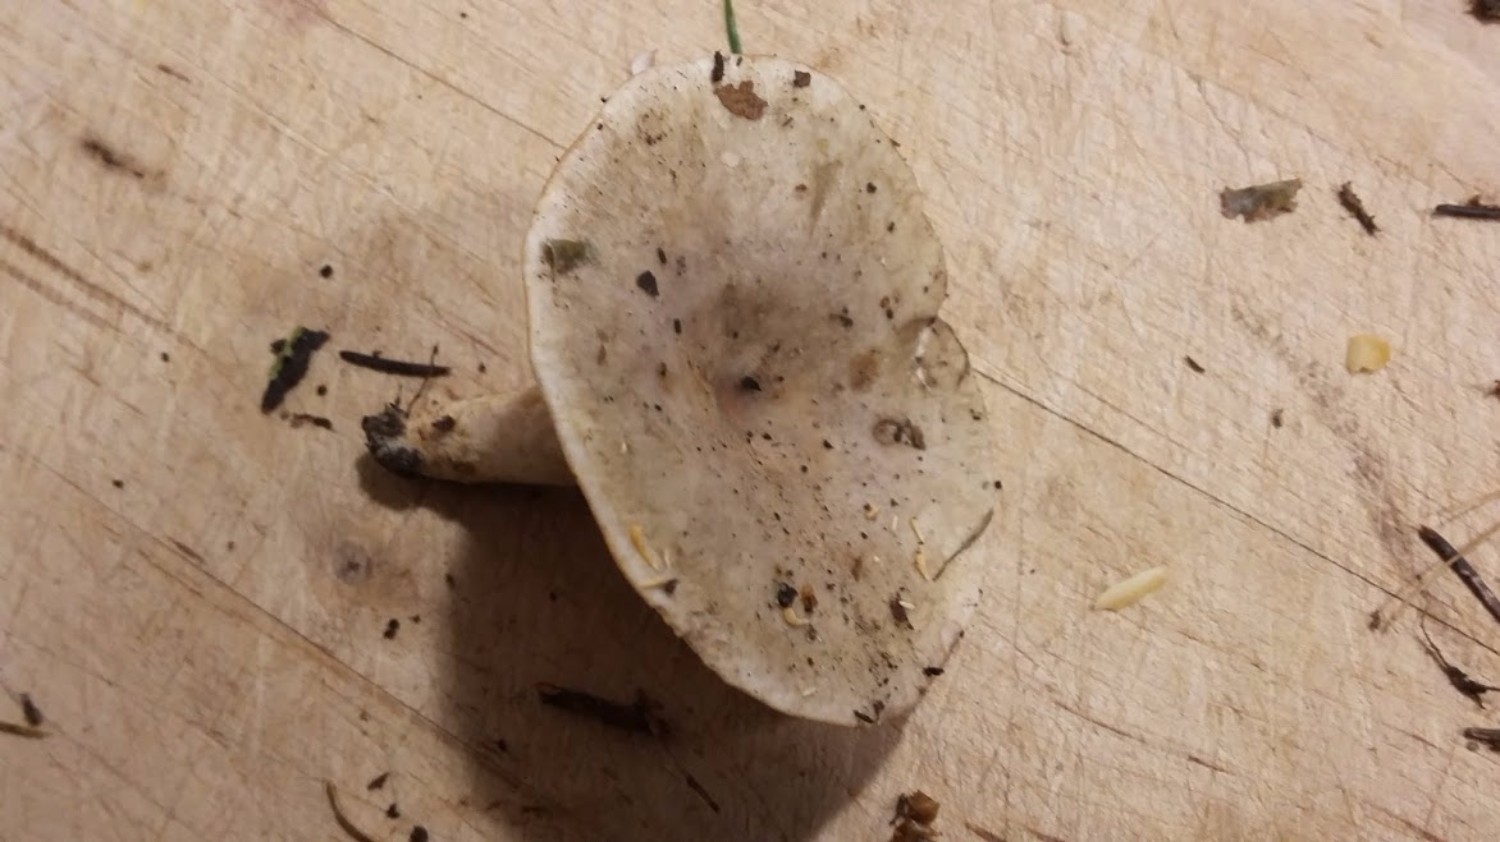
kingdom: Fungi
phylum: Basidiomycota
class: Agaricomycetes
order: Russulales
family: Russulaceae
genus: Lactarius
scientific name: Lactarius fluens
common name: lysrandet mælkehat
